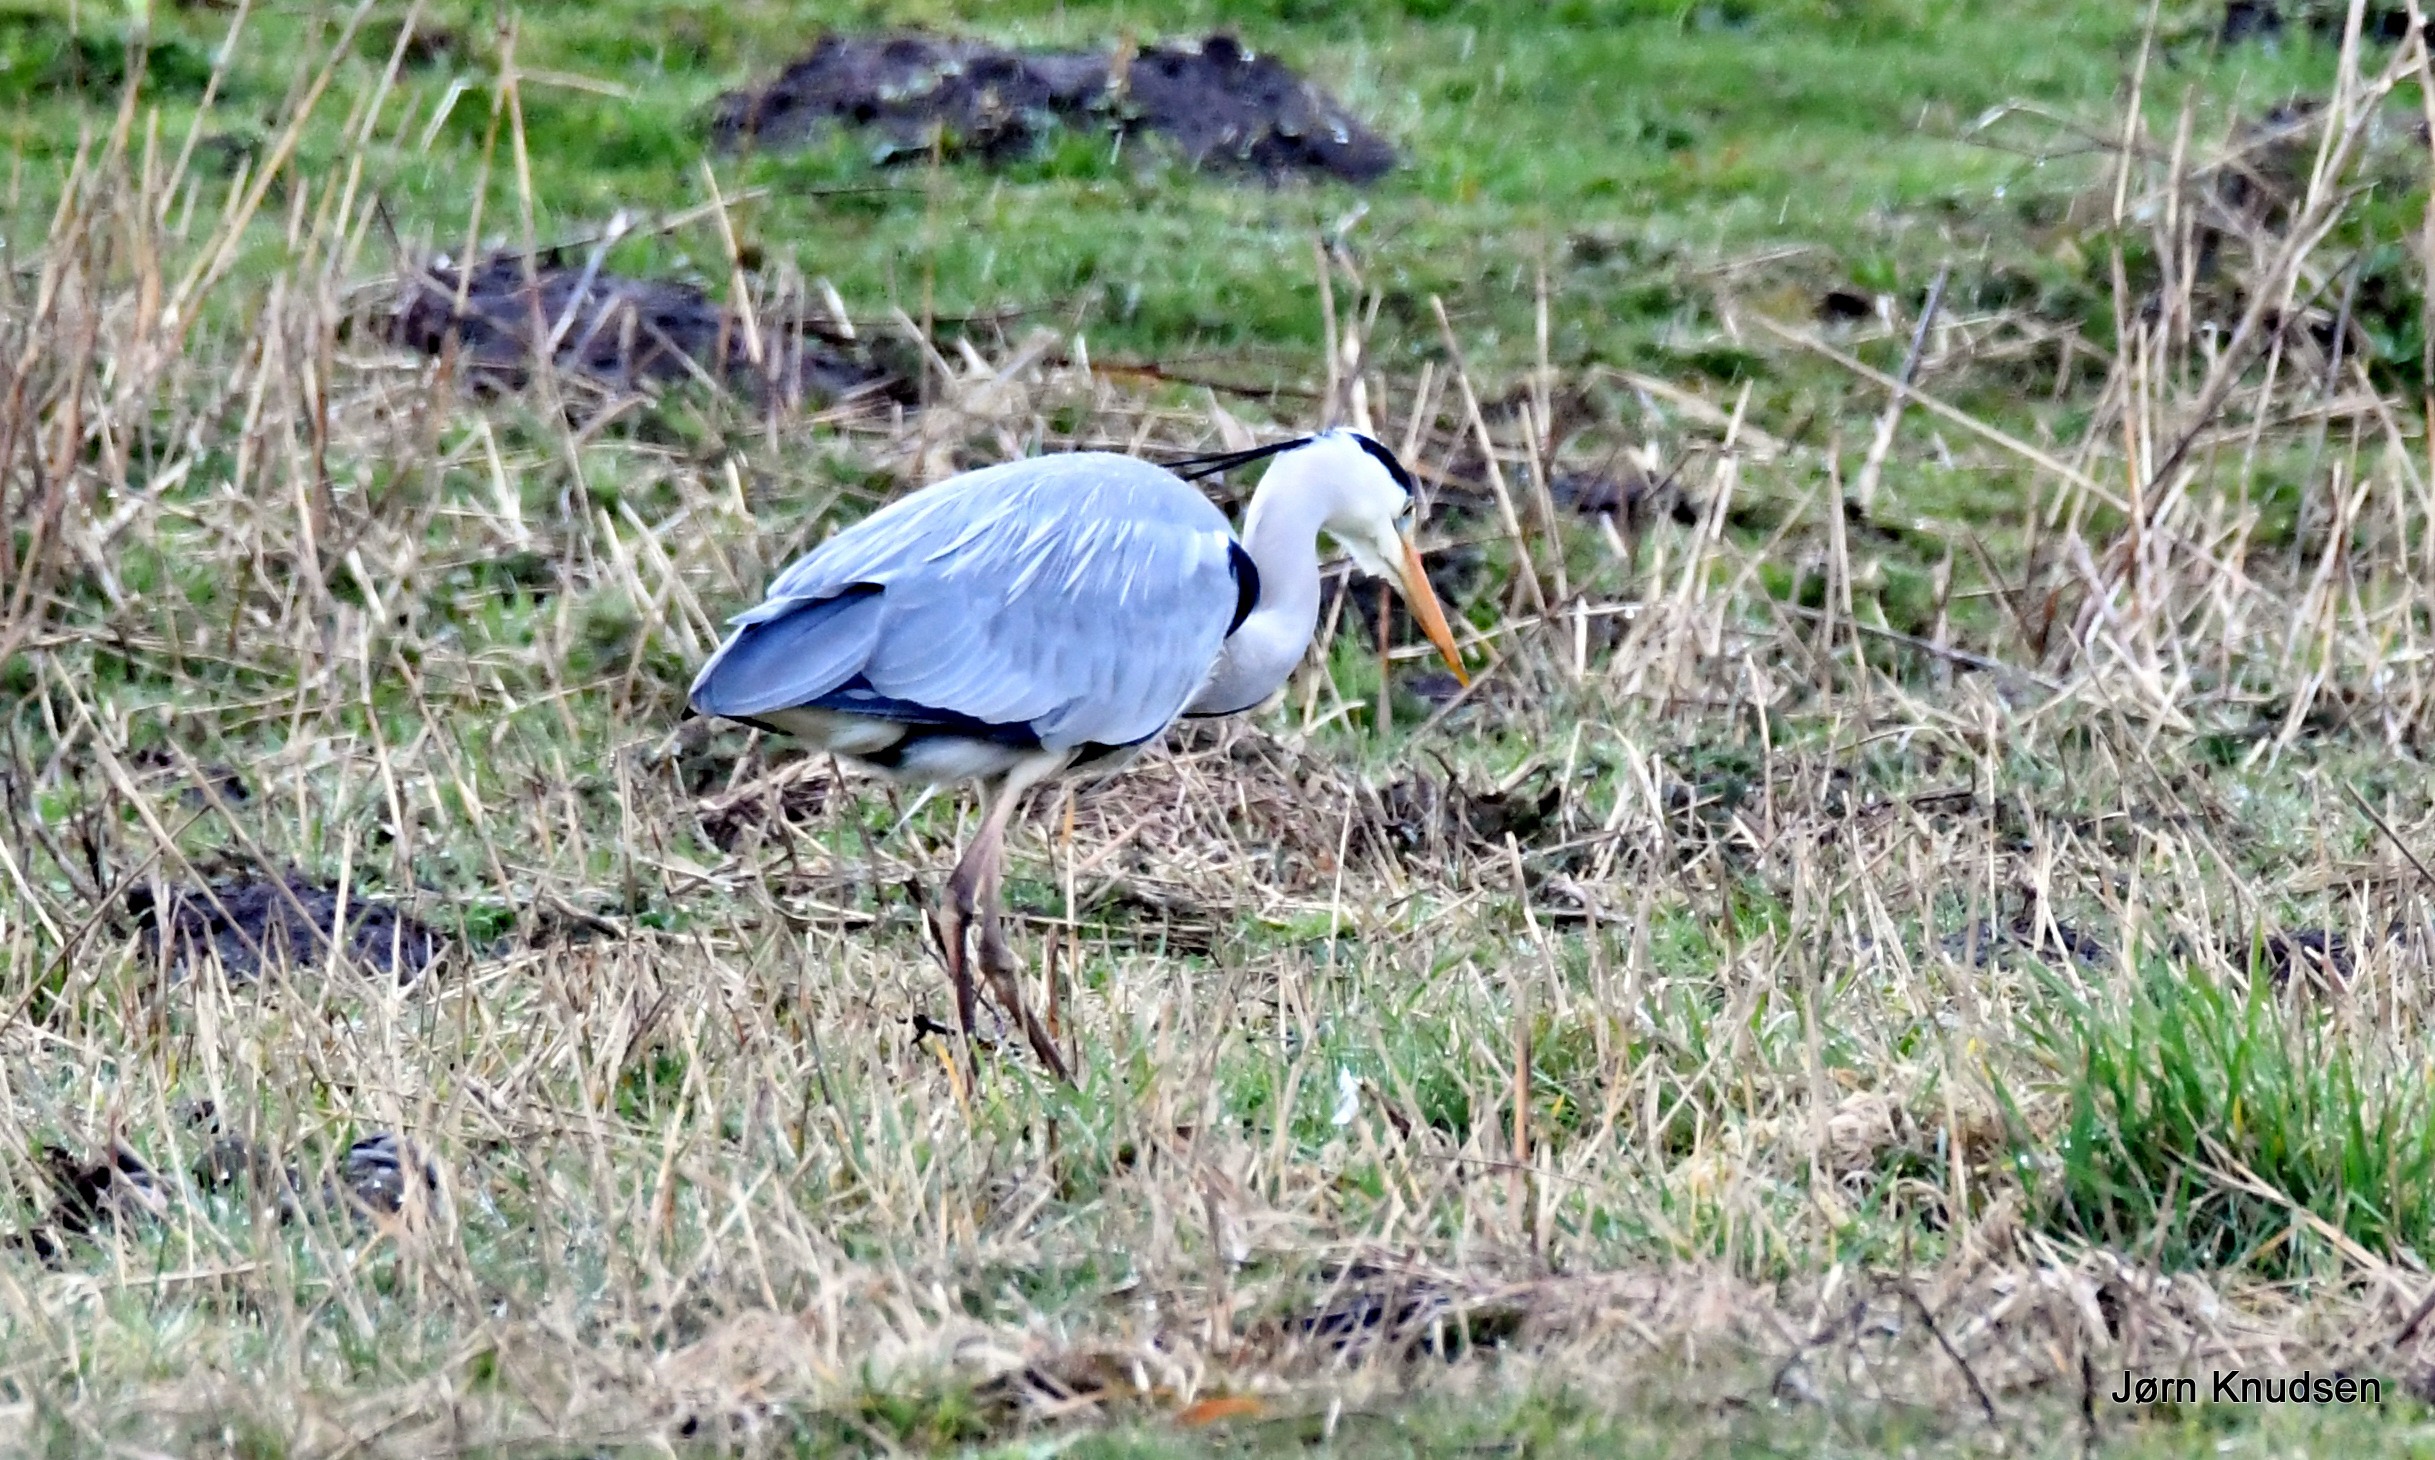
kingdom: Animalia
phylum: Chordata
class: Aves
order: Pelecaniformes
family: Ardeidae
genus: Ardea
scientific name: Ardea cinerea
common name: Fiskehejre
